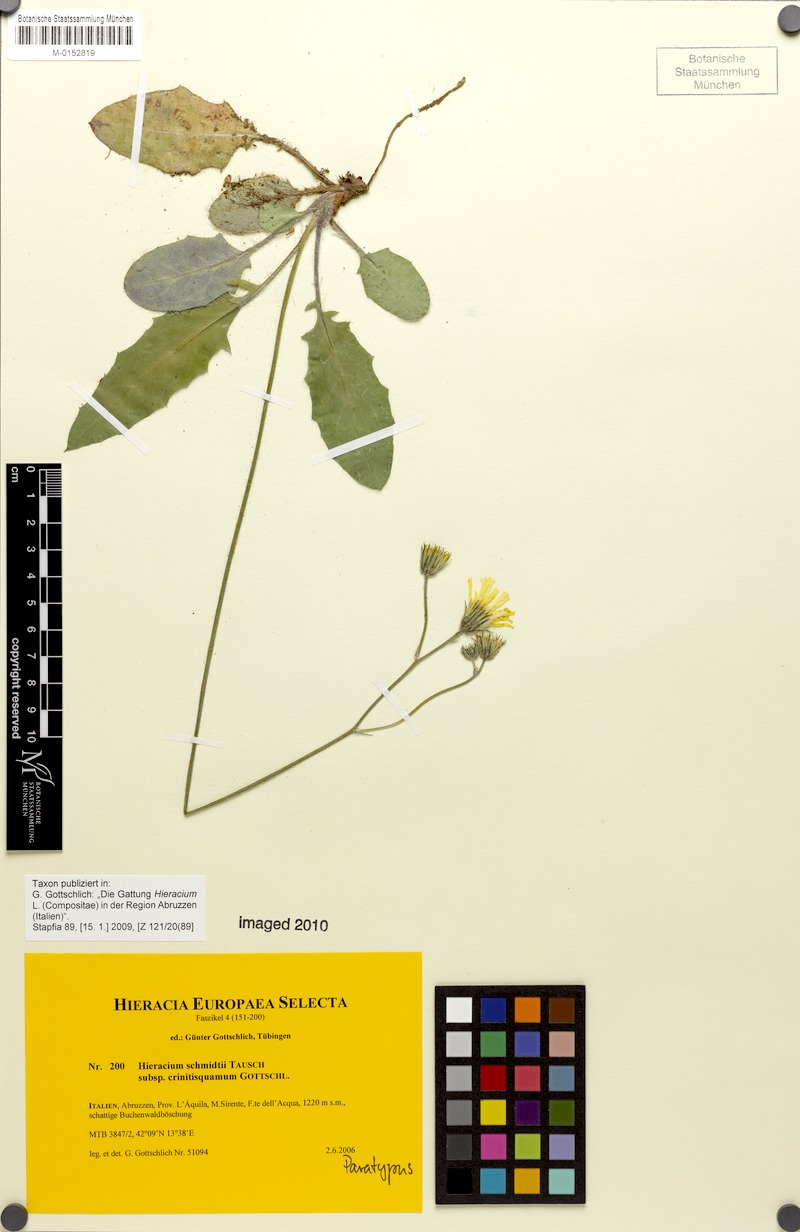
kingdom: Plantae
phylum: Tracheophyta
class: Magnoliopsida
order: Asterales
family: Asteraceae
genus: Hieracium
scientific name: Hieracium schmidtii
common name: Schmidt's hawkweed
